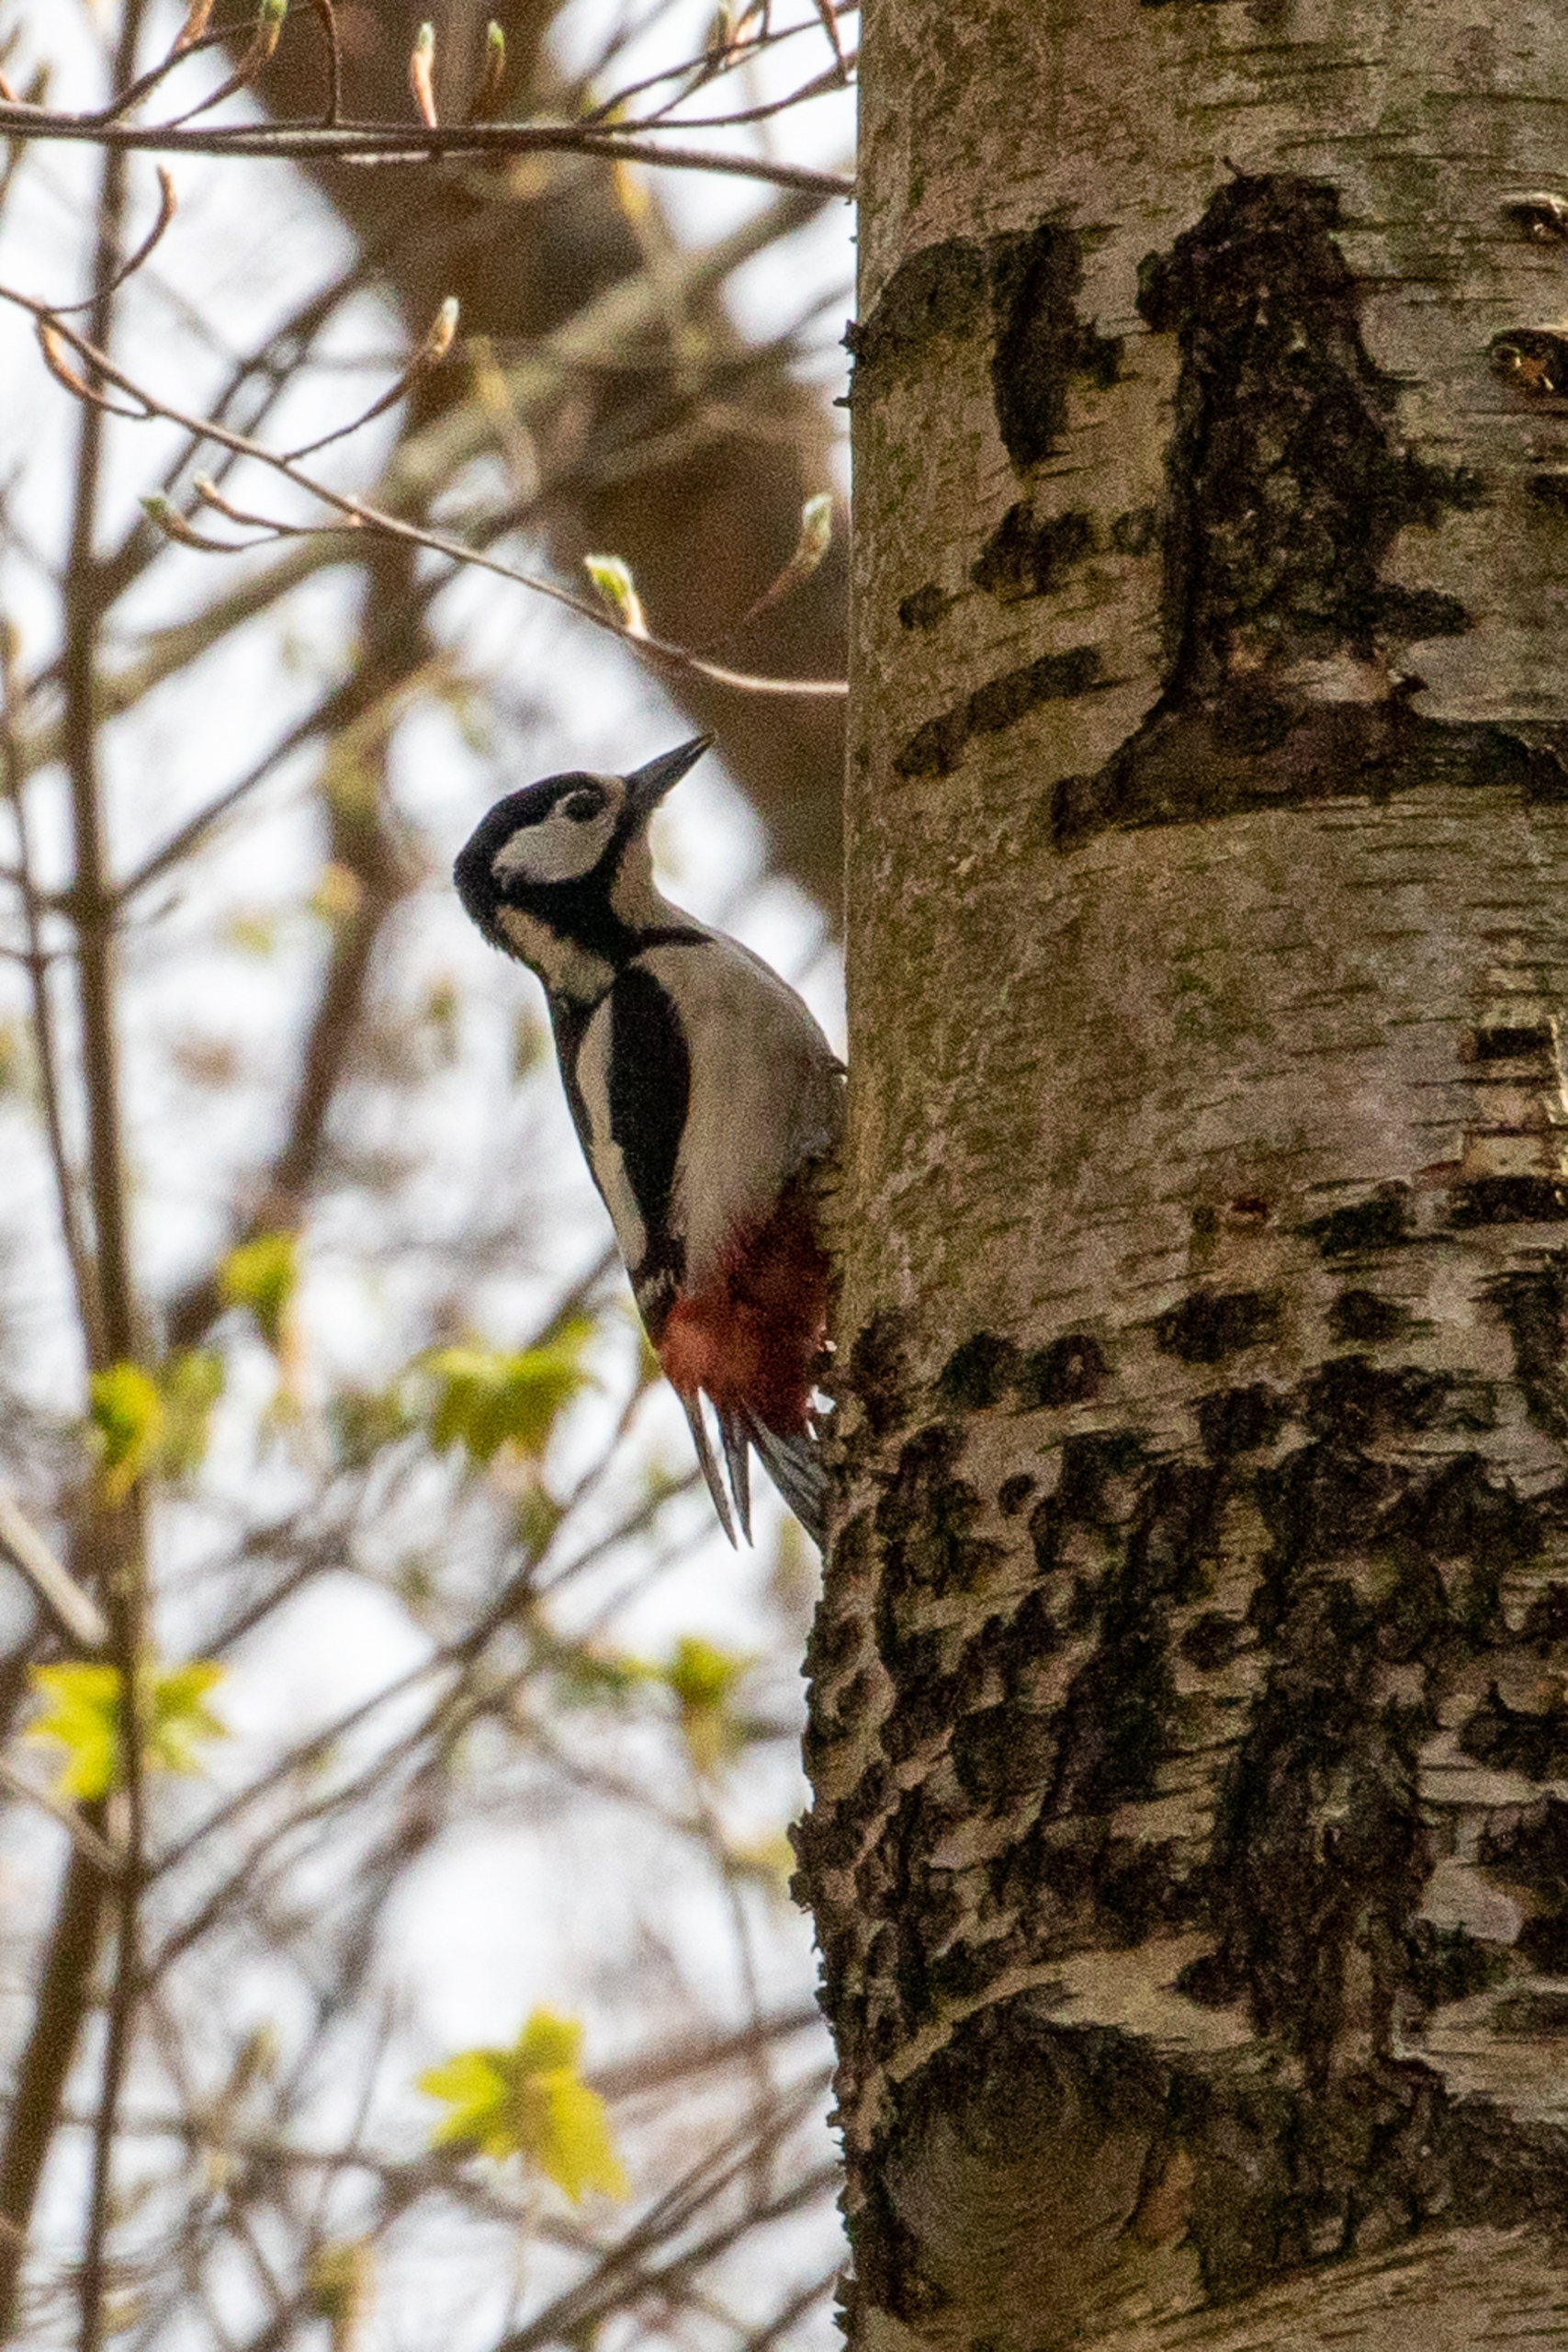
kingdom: Animalia
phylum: Chordata
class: Aves
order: Piciformes
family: Picidae
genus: Dendrocopos
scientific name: Dendrocopos major
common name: Stor flagspætte
